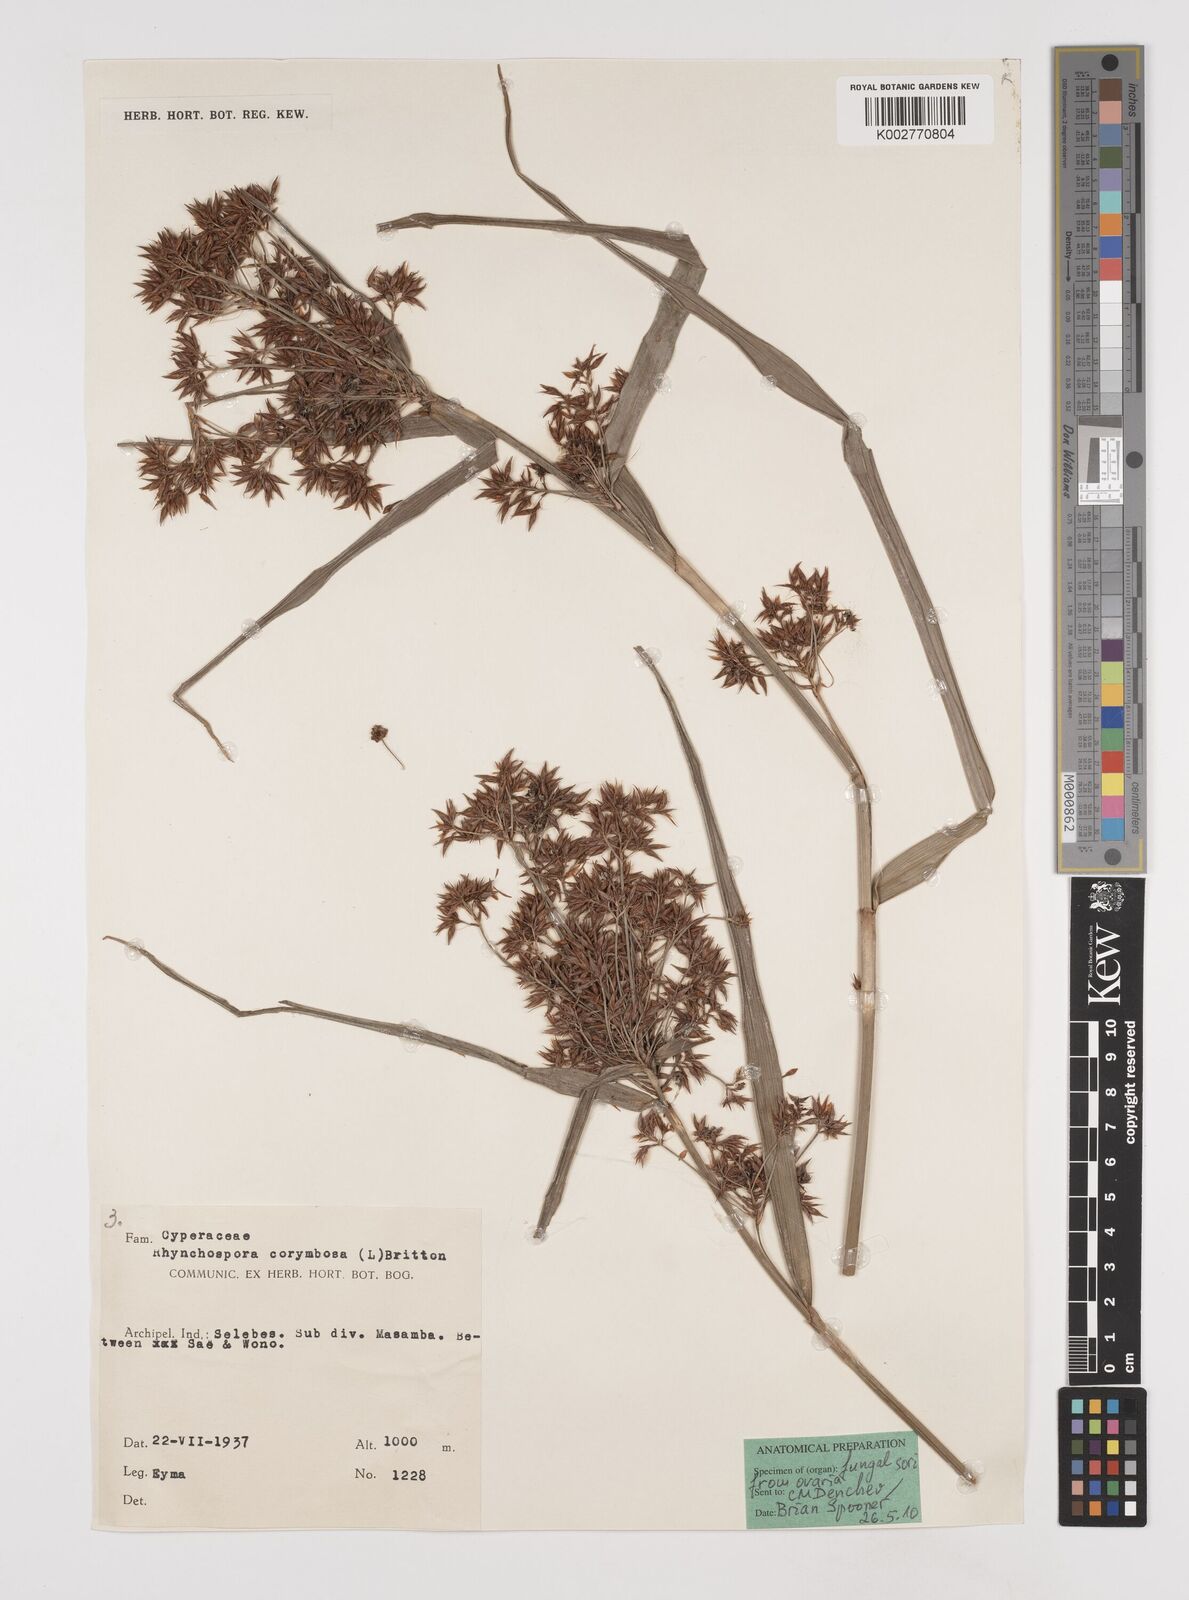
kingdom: Plantae
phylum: Tracheophyta
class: Liliopsida
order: Poales
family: Cyperaceae
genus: Rhynchospora
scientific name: Rhynchospora corymbosa
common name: Golden beak sedge
